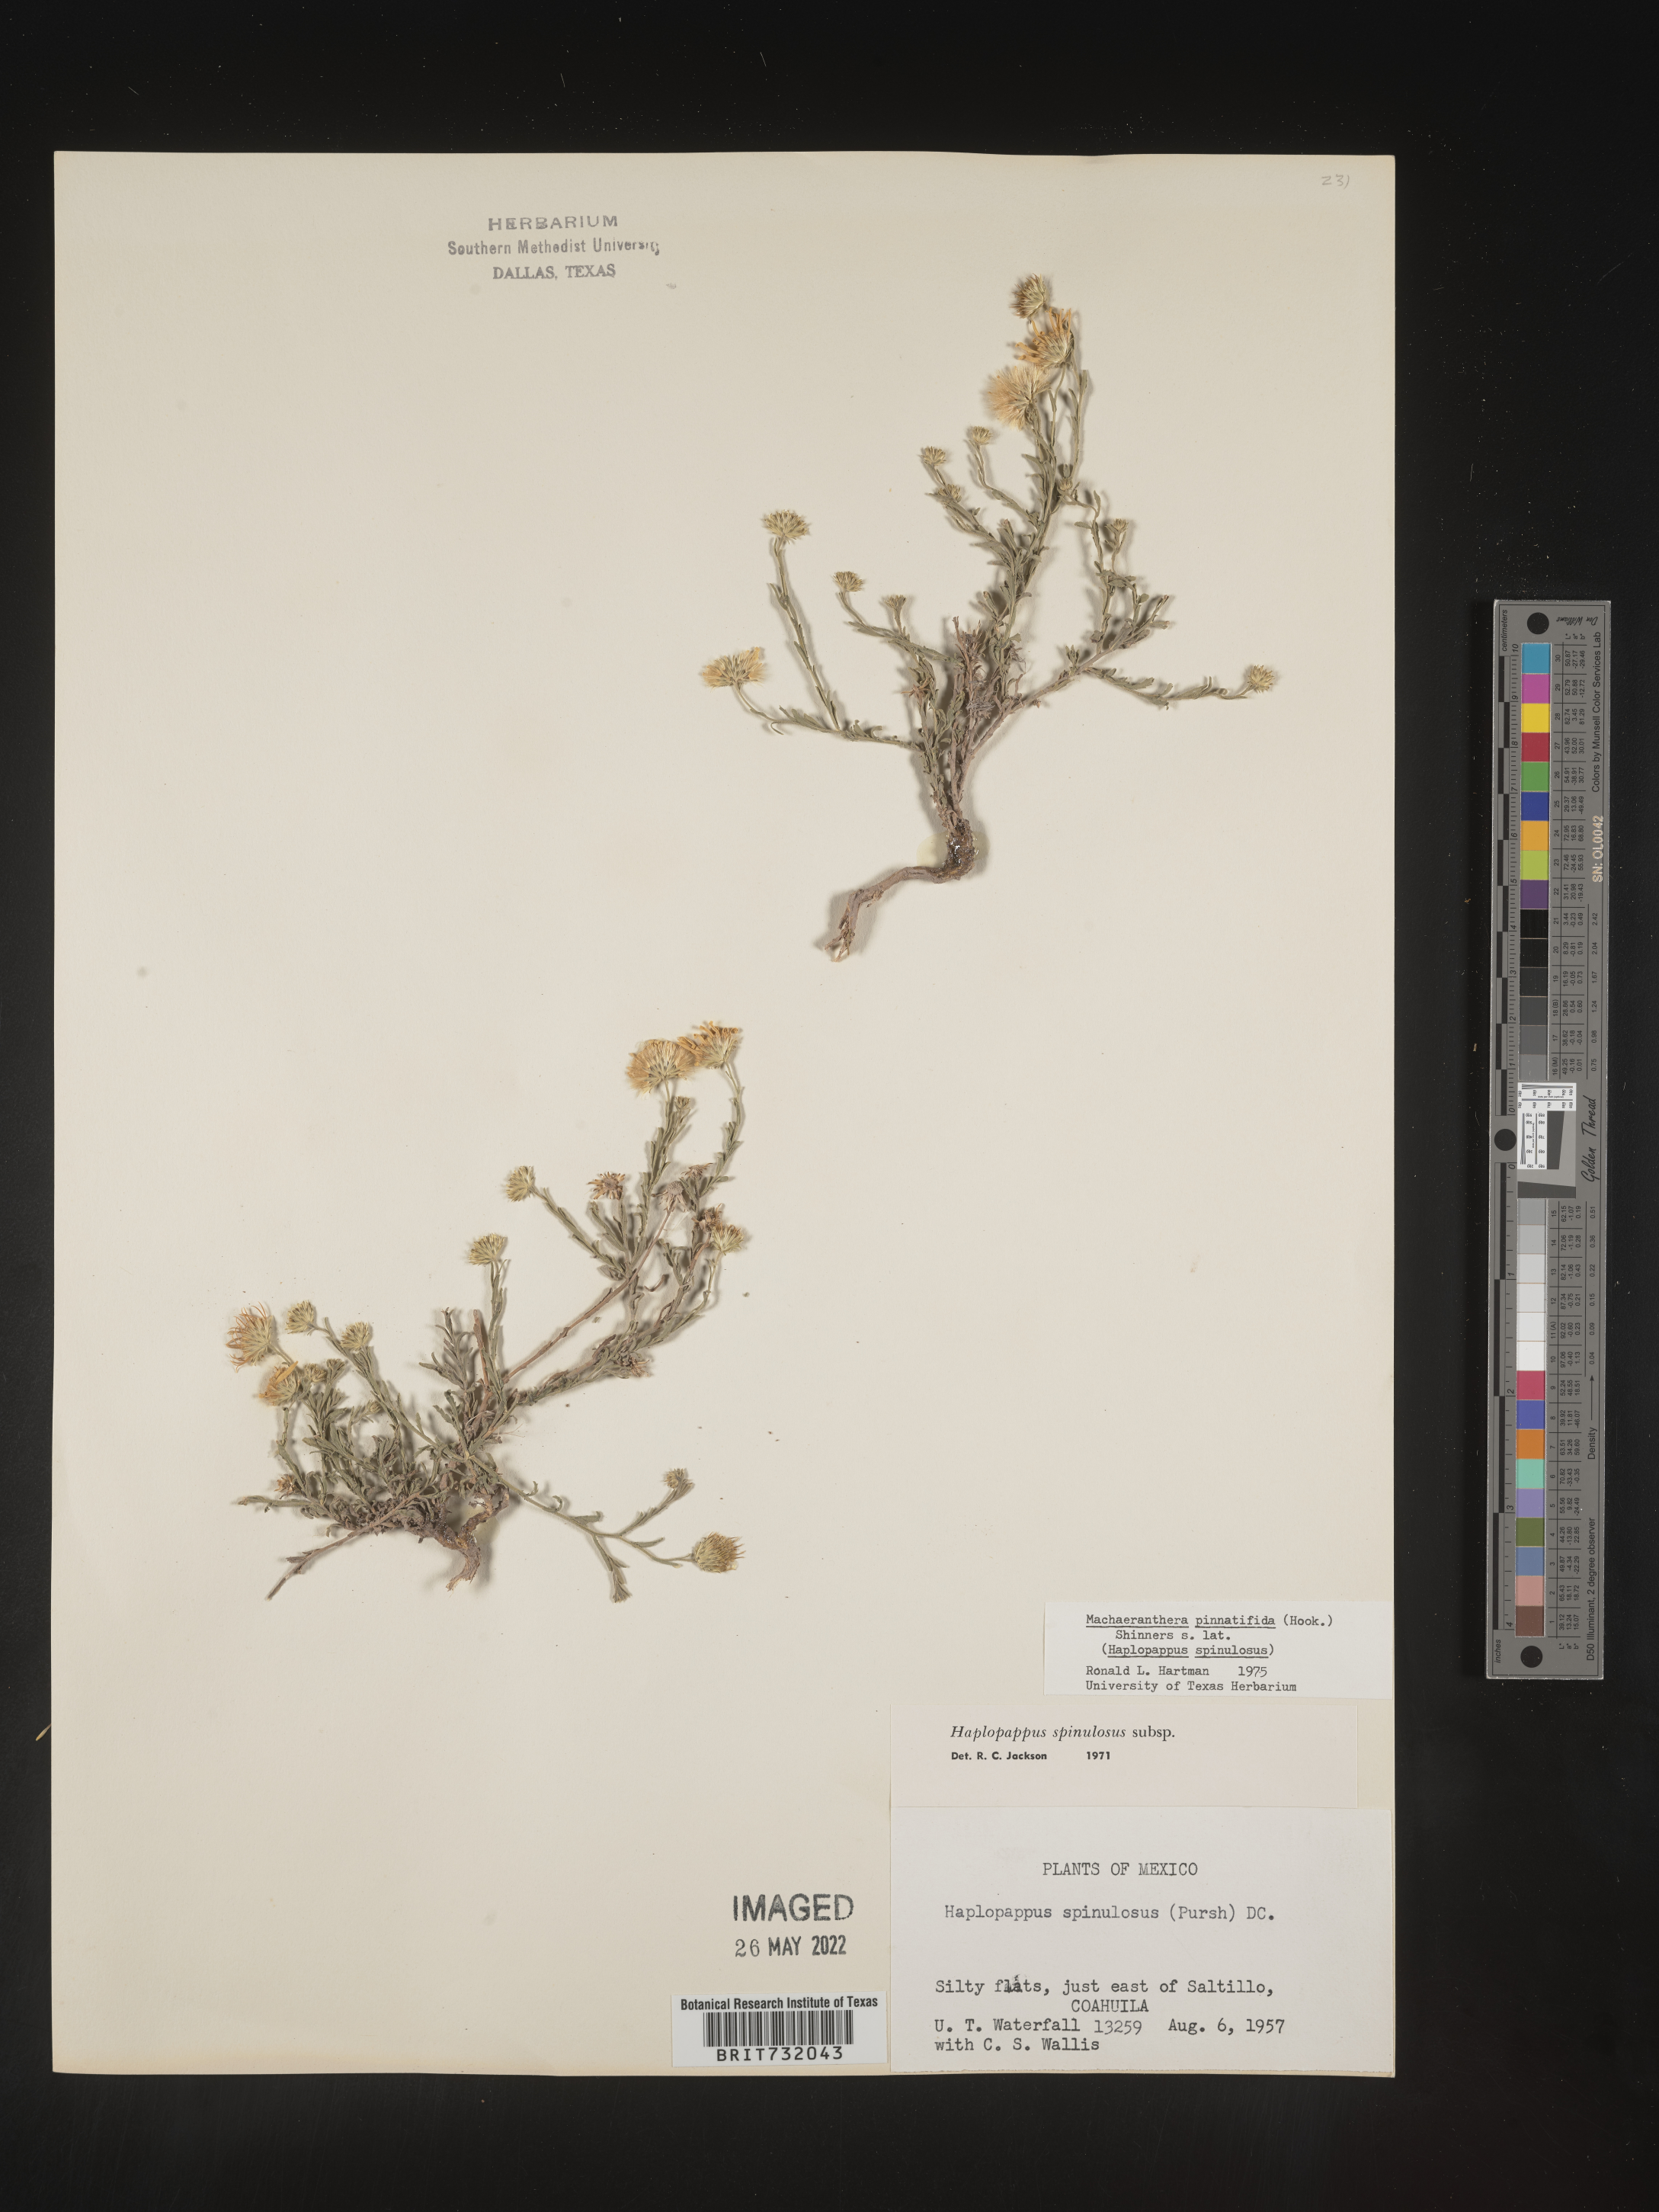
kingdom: Plantae
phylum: Tracheophyta
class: Magnoliopsida
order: Asterales
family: Asteraceae
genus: Xanthisma
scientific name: Xanthisma spinulosum
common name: Spiny goldenweed
